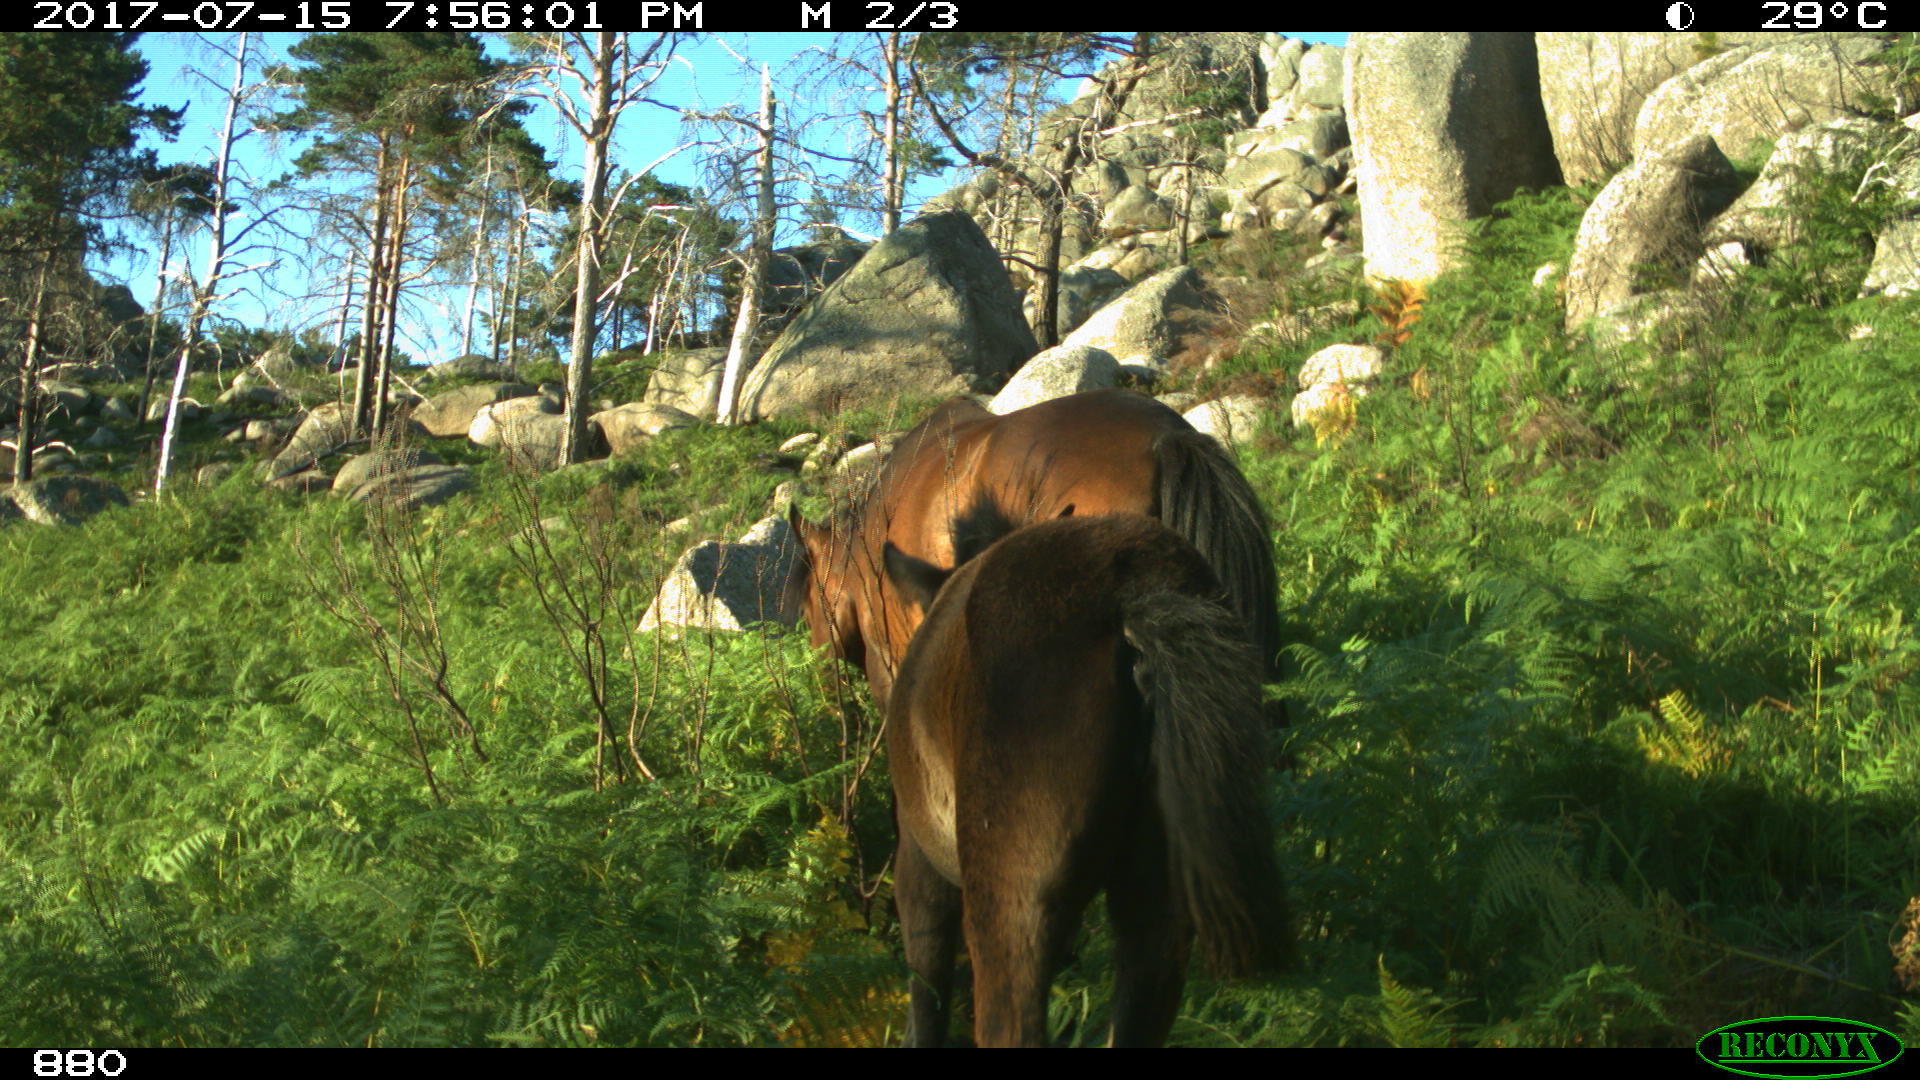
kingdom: Animalia
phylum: Chordata
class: Mammalia
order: Perissodactyla
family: Equidae
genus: Equus
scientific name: Equus caballus
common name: Horse
